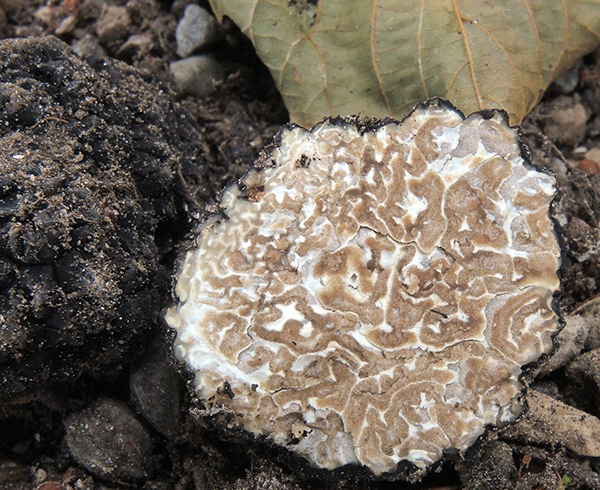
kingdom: Fungi
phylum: Ascomycota
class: Pezizomycetes
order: Pezizales
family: Tuberaceae
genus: Tuber
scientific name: Tuber aestivum
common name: sommer-trøffel
